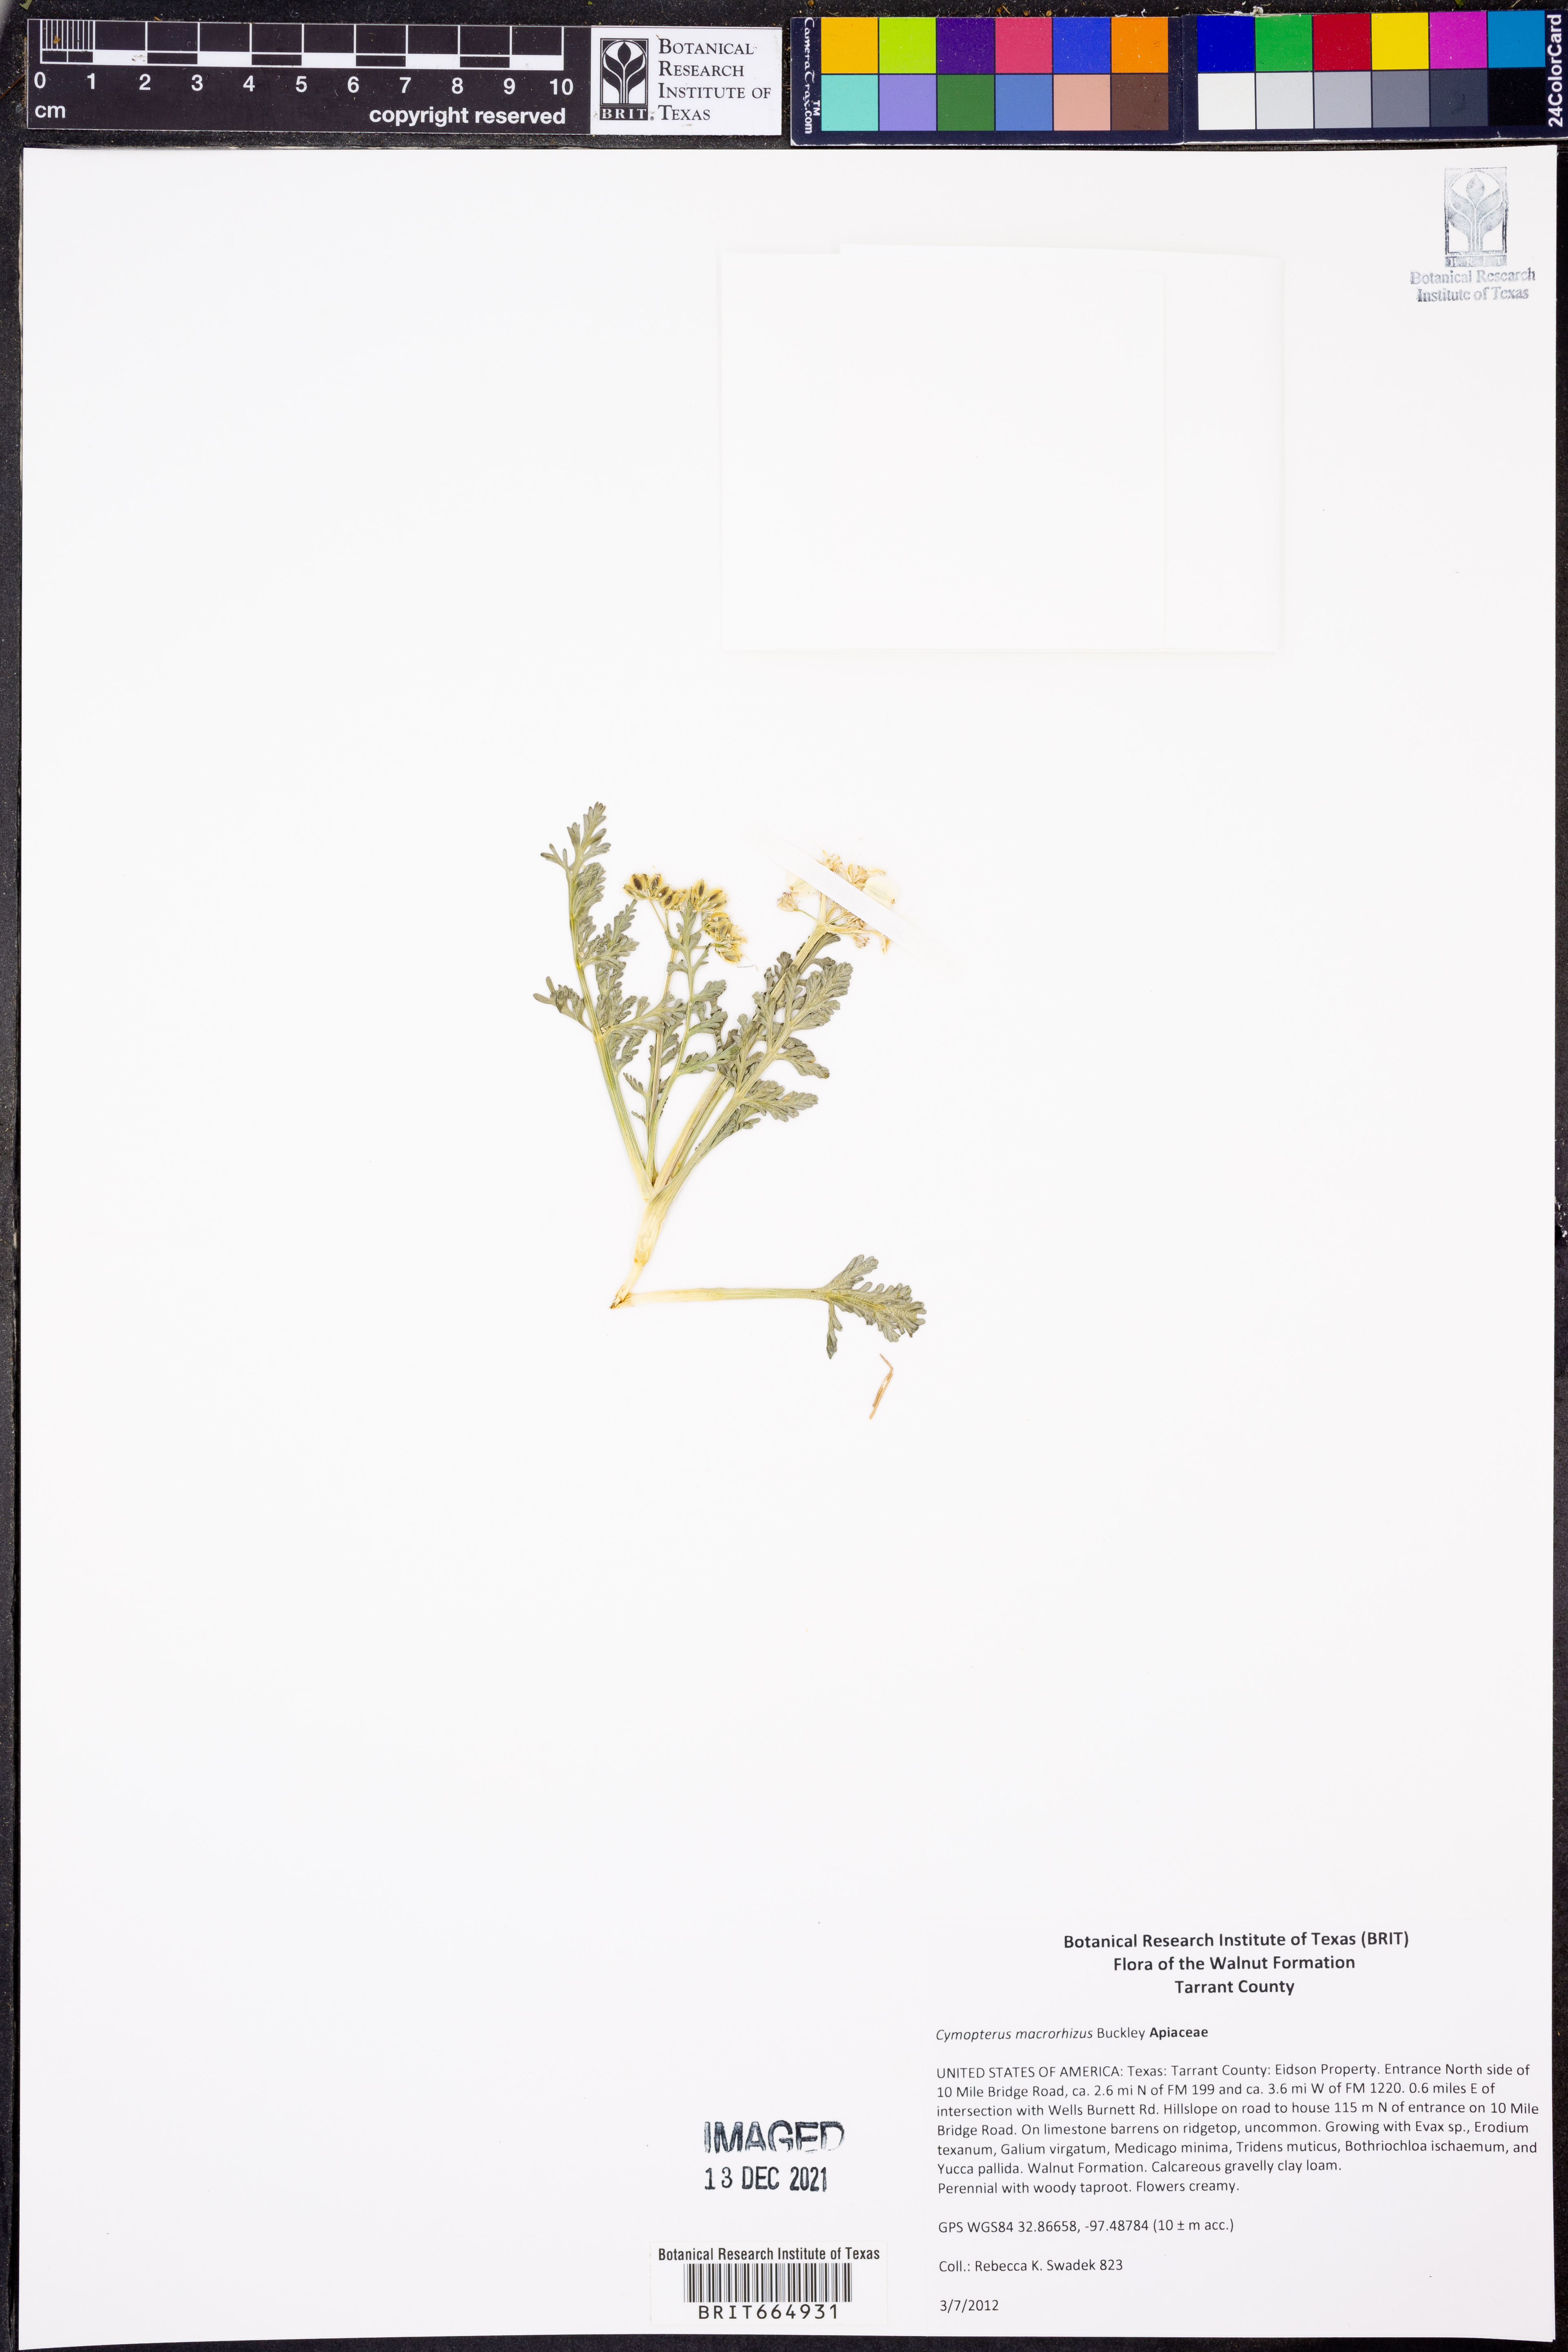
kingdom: Plantae
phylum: Tracheophyta
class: Magnoliopsida
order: Apiales
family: Apiaceae
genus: Vesper
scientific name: Vesper macrorhizus
